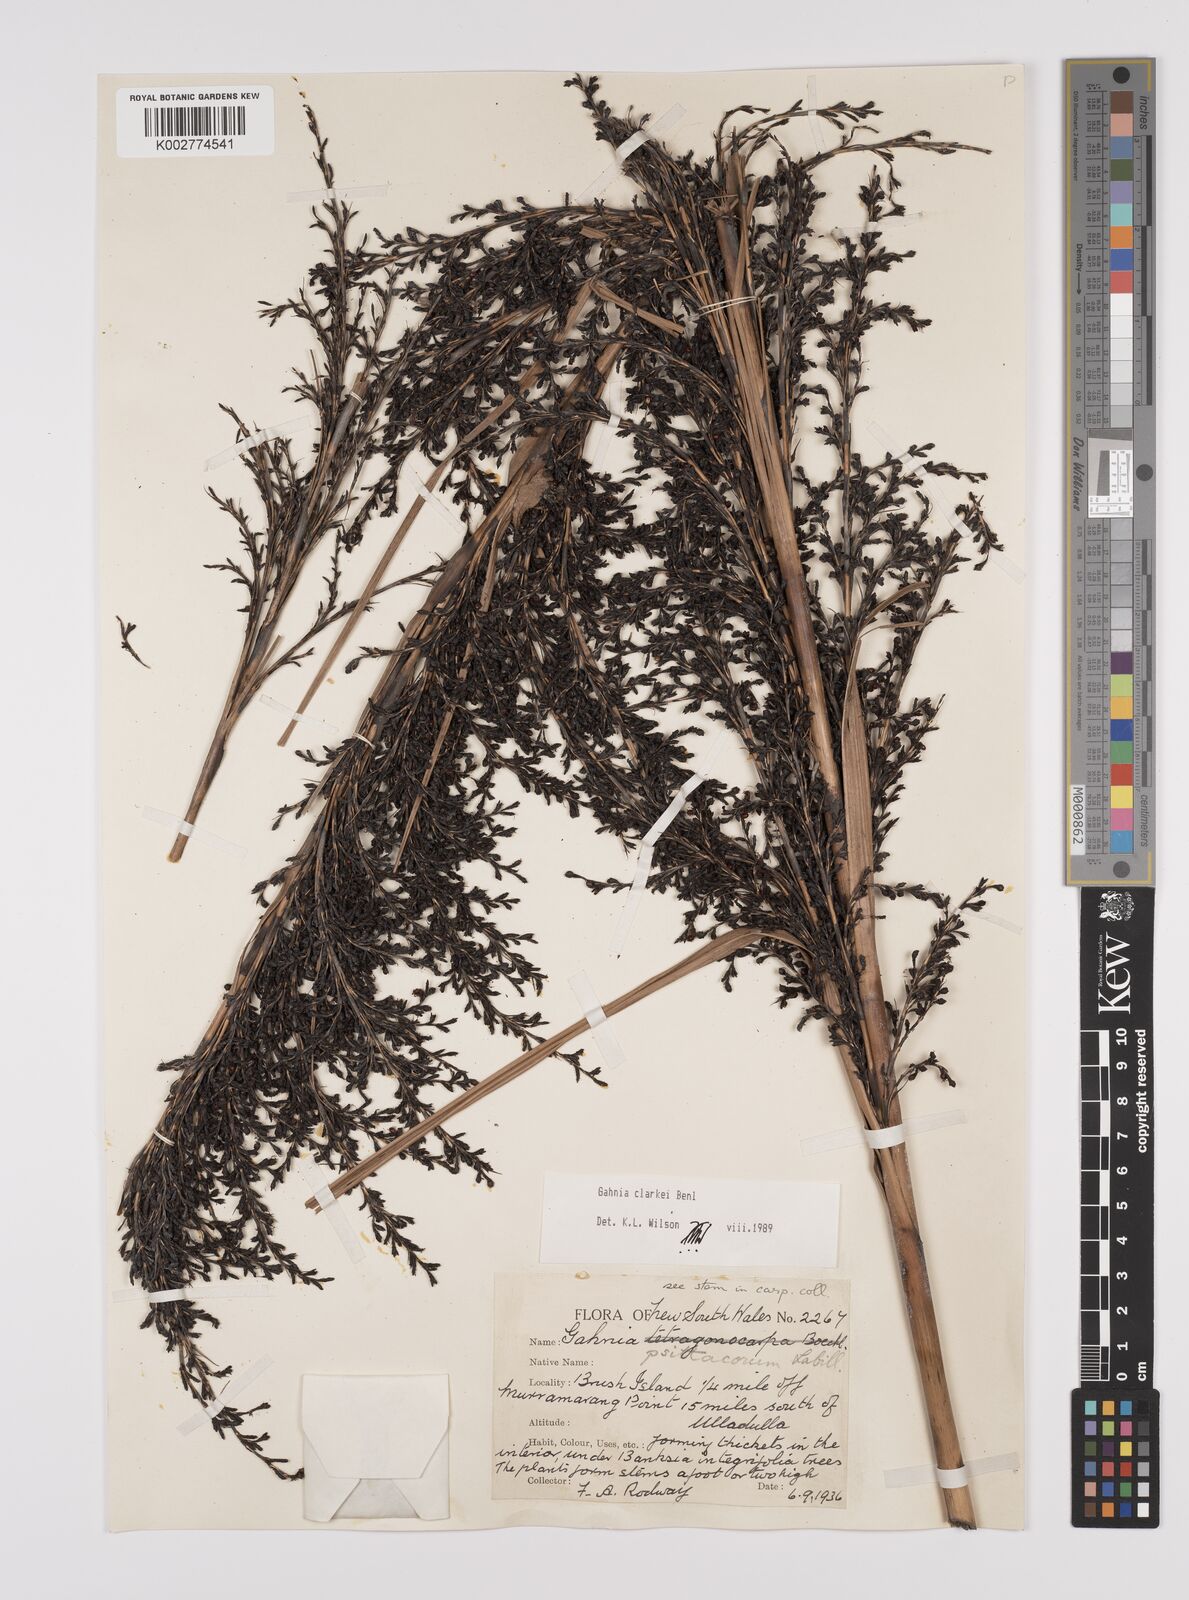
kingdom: Plantae
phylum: Tracheophyta
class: Liliopsida
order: Poales
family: Cyperaceae
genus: Gahnia
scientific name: Gahnia clarkei
